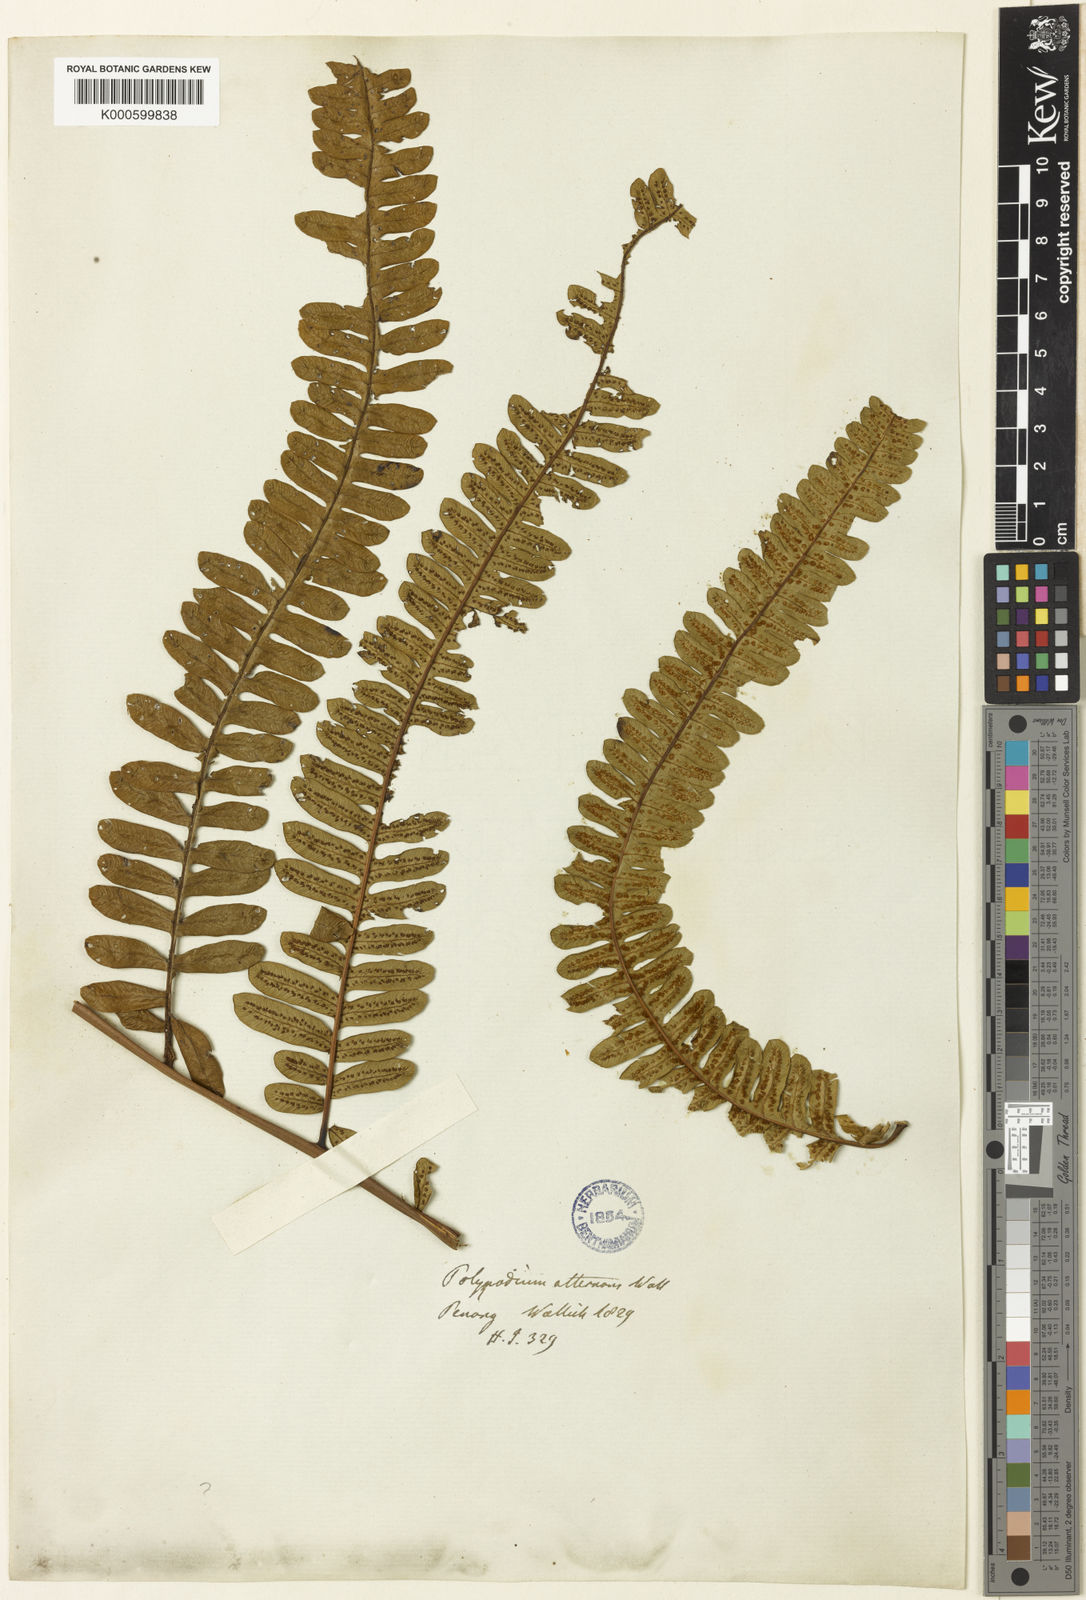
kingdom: Plantae
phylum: Tracheophyta
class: Polypodiopsida
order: Cyatheales
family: Cyatheaceae
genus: Alsophila
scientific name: Alsophila alternans
